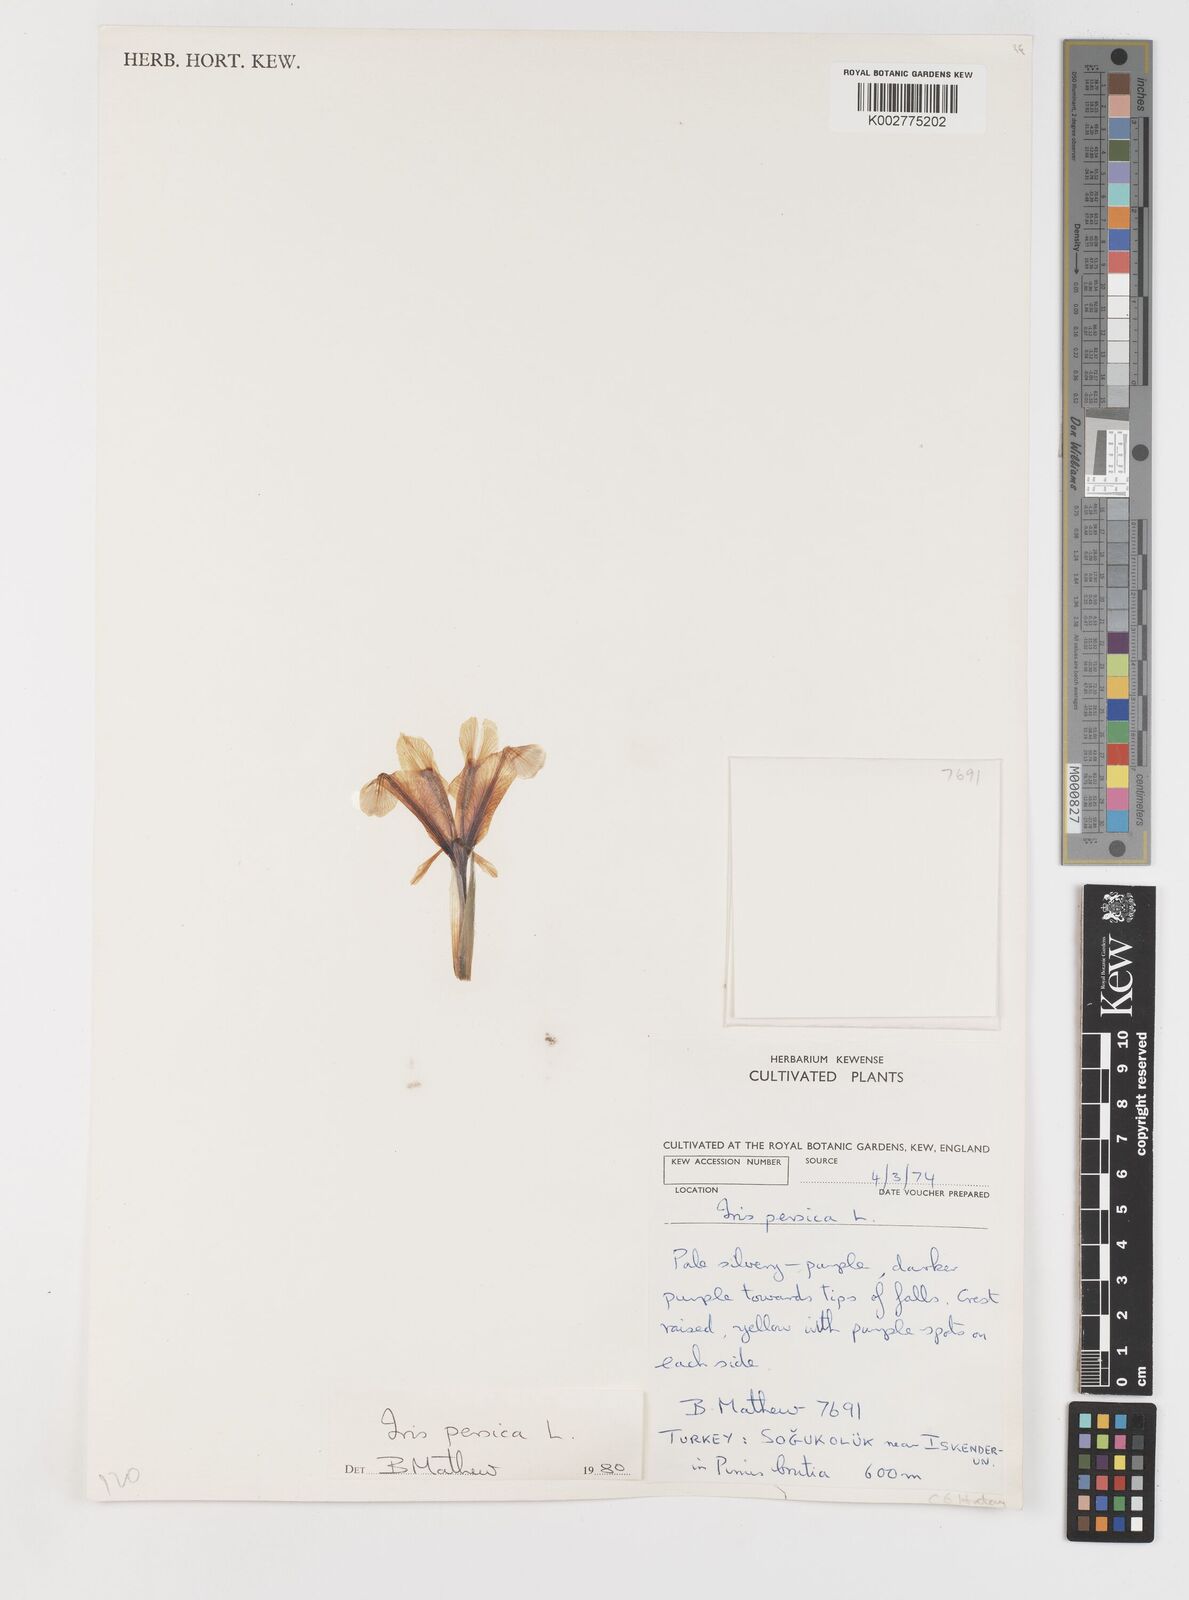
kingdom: Plantae
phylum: Tracheophyta
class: Liliopsida
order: Asparagales
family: Iridaceae
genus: Iris
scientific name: Iris persica
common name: Persian iris
